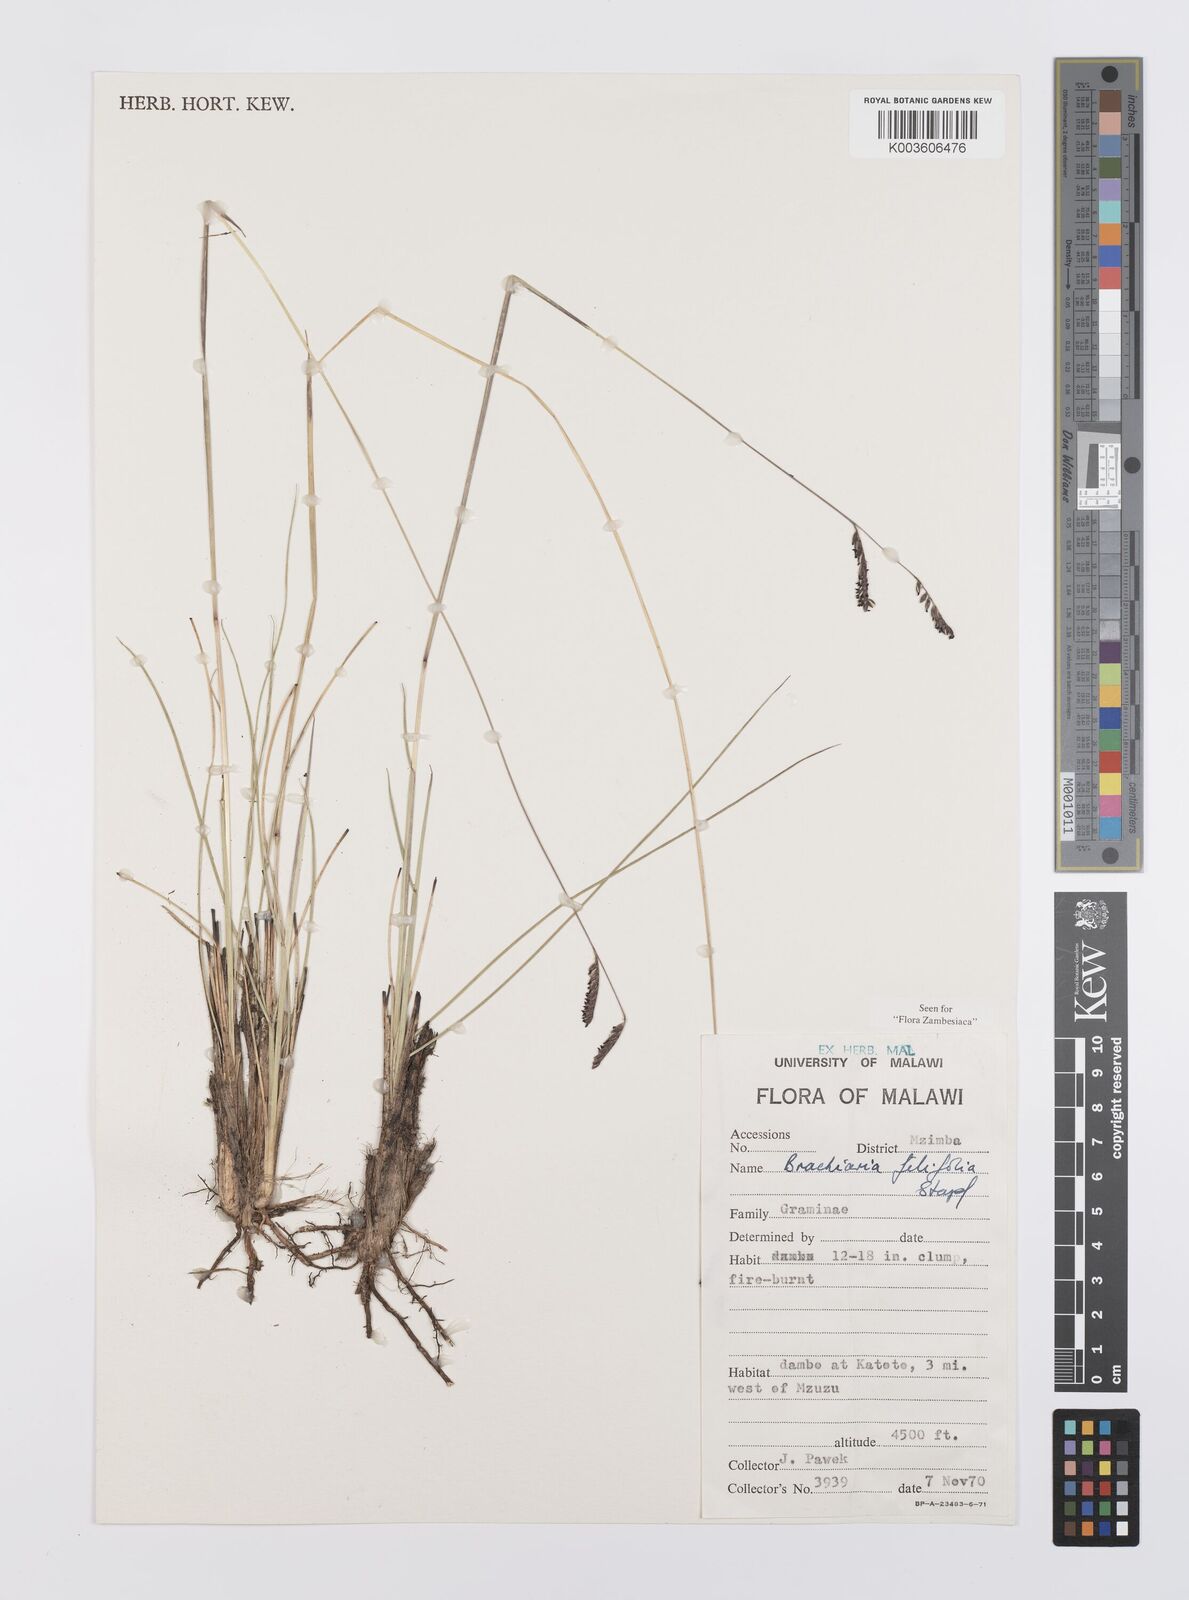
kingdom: Plantae
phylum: Tracheophyta
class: Liliopsida
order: Poales
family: Poaceae
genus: Urochloa
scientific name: Urochloa subulifolia
